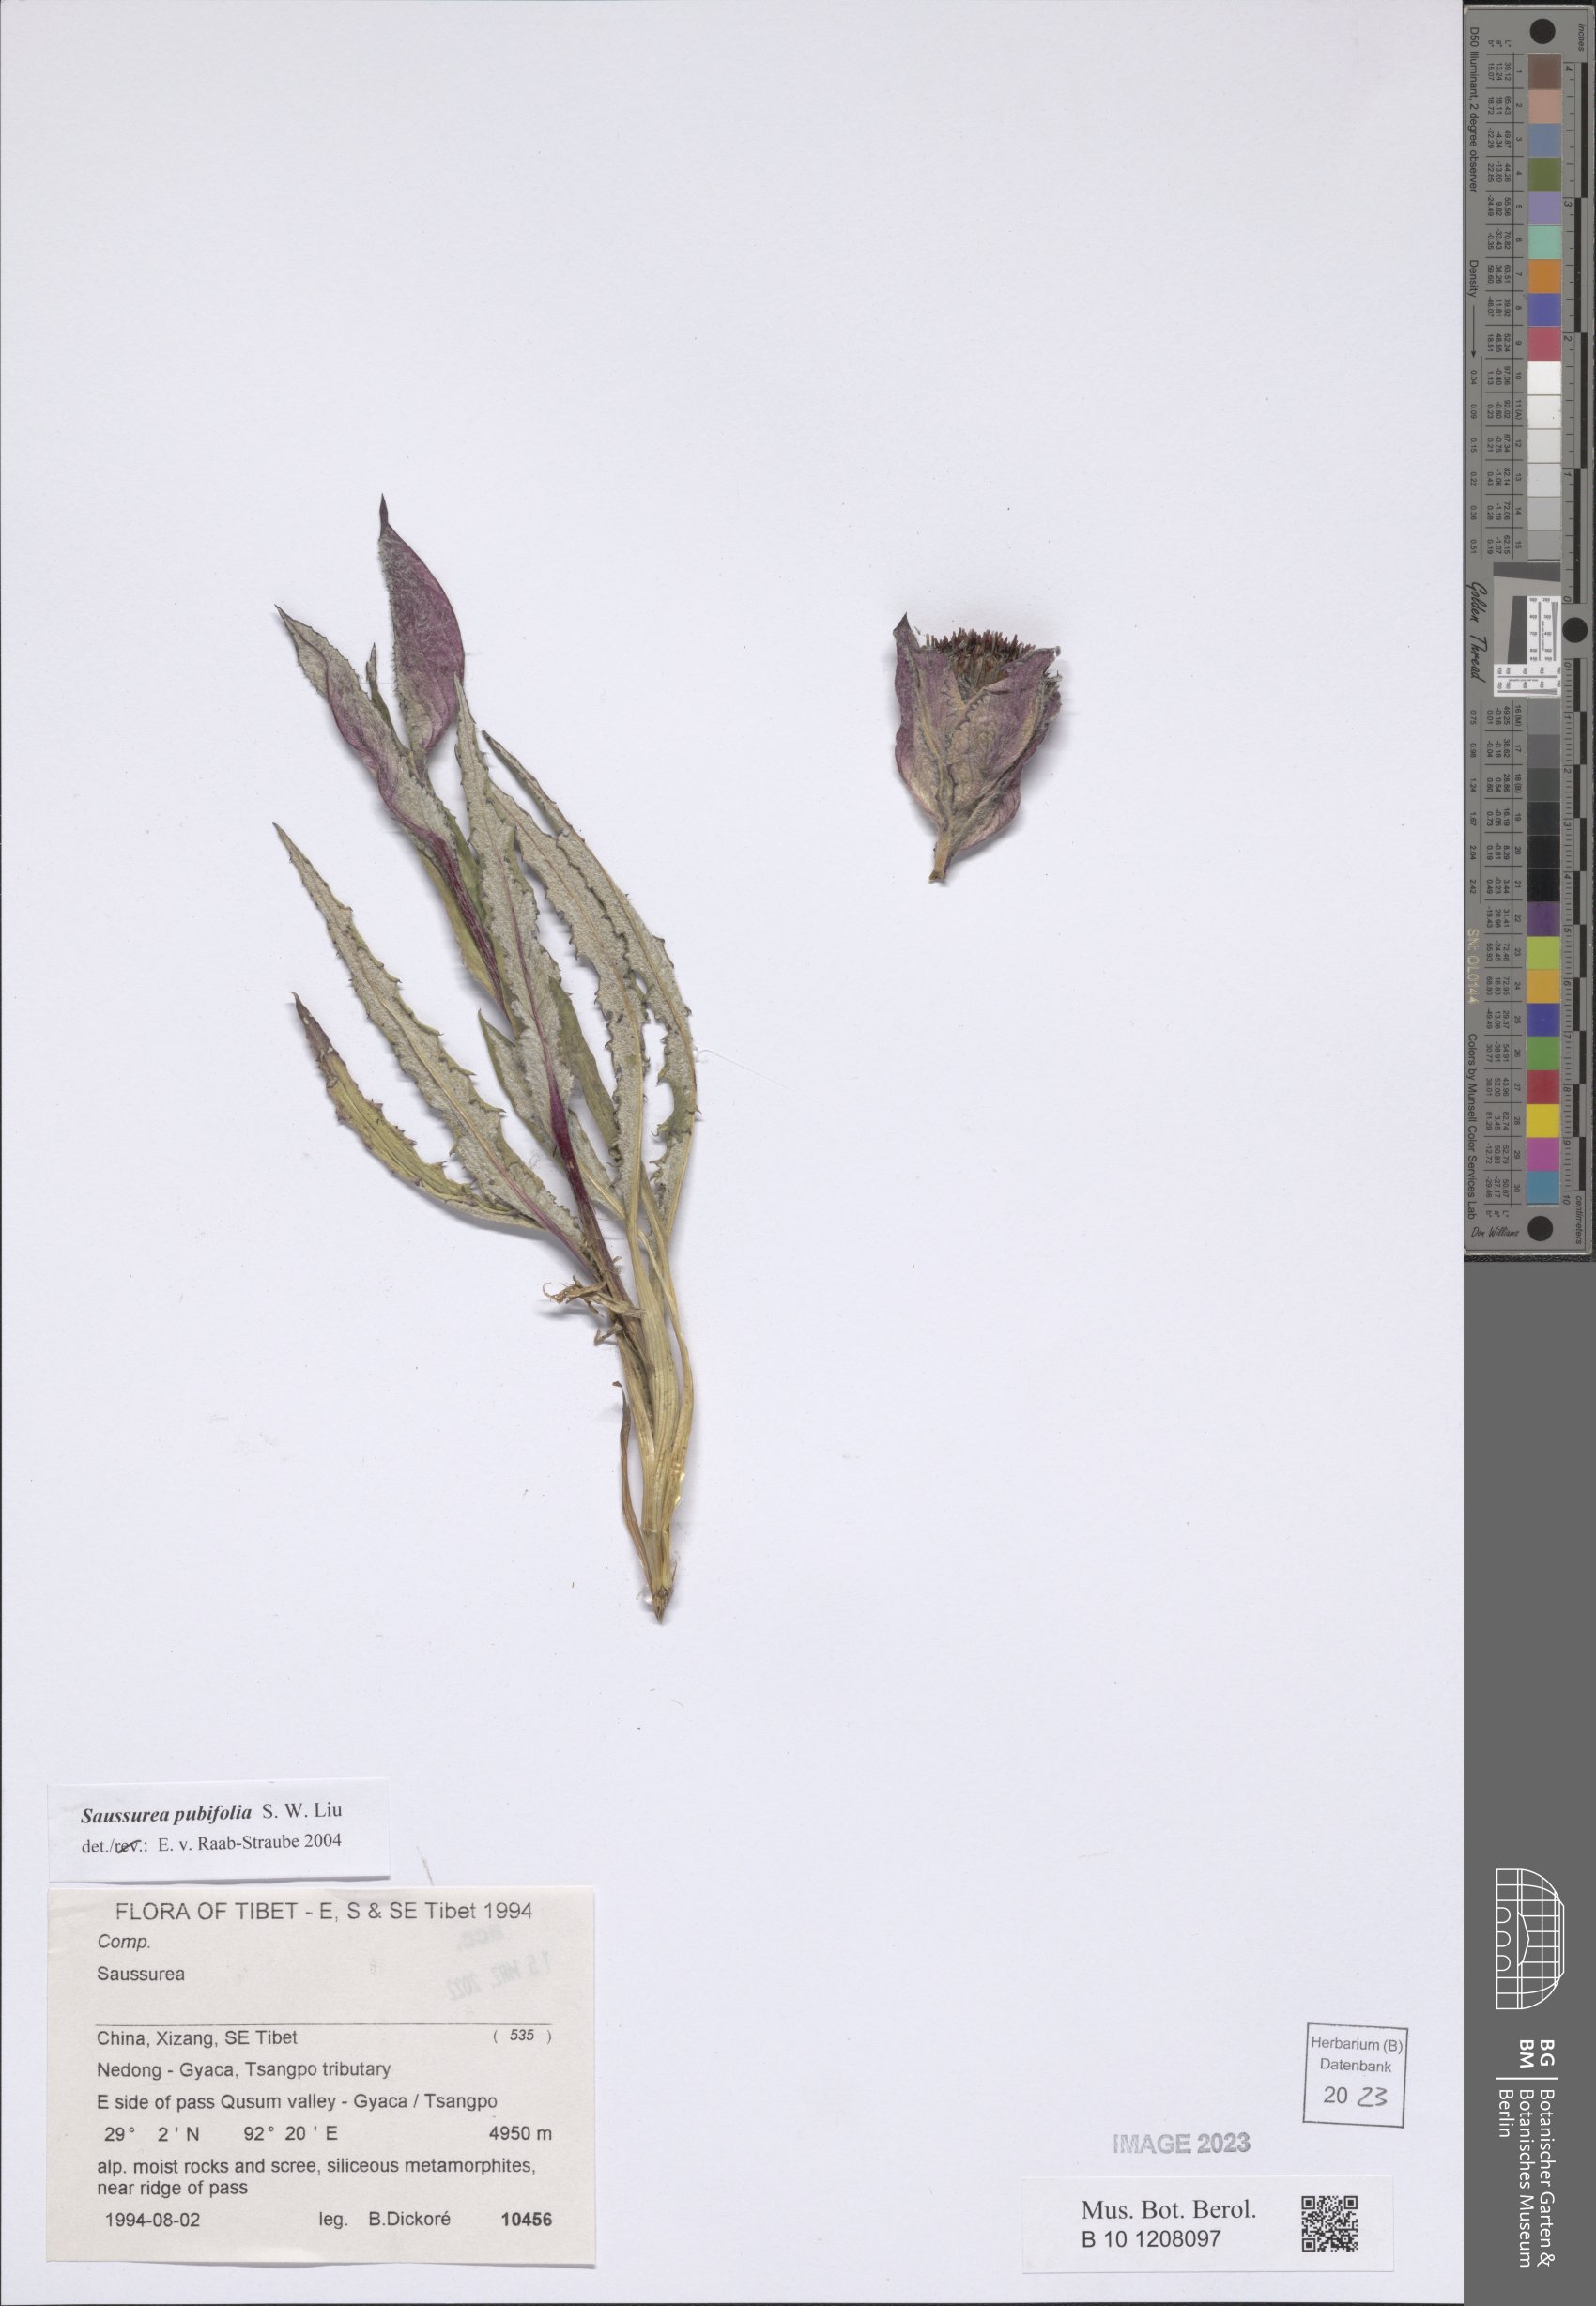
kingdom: Plantae
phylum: Tracheophyta
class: Magnoliopsida
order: Asterales
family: Asteraceae
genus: Saussurea
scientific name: Saussurea pubifolia
